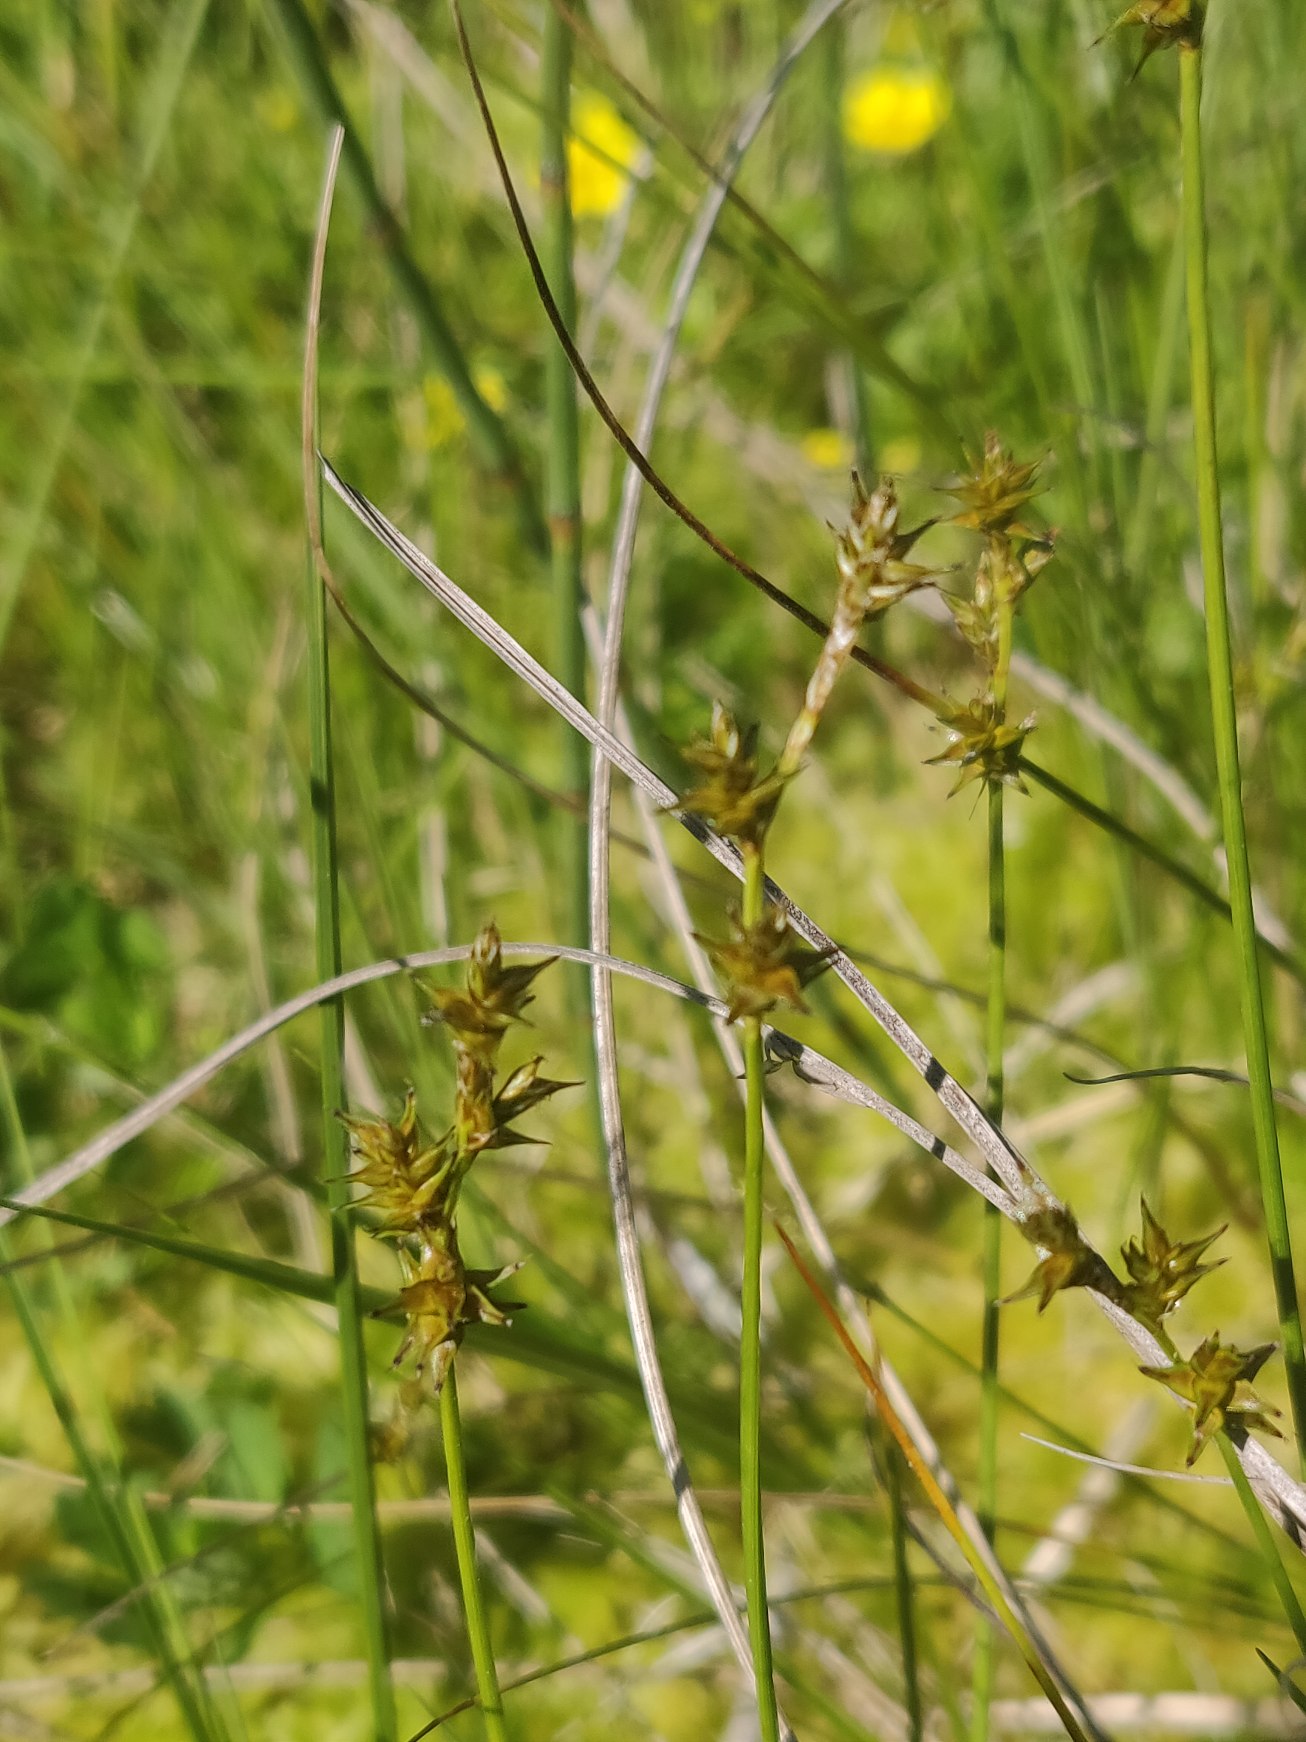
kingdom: Plantae
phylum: Tracheophyta
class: Liliopsida
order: Poales
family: Cyperaceae
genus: Carex
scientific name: Carex echinata
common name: Stjerne-star
